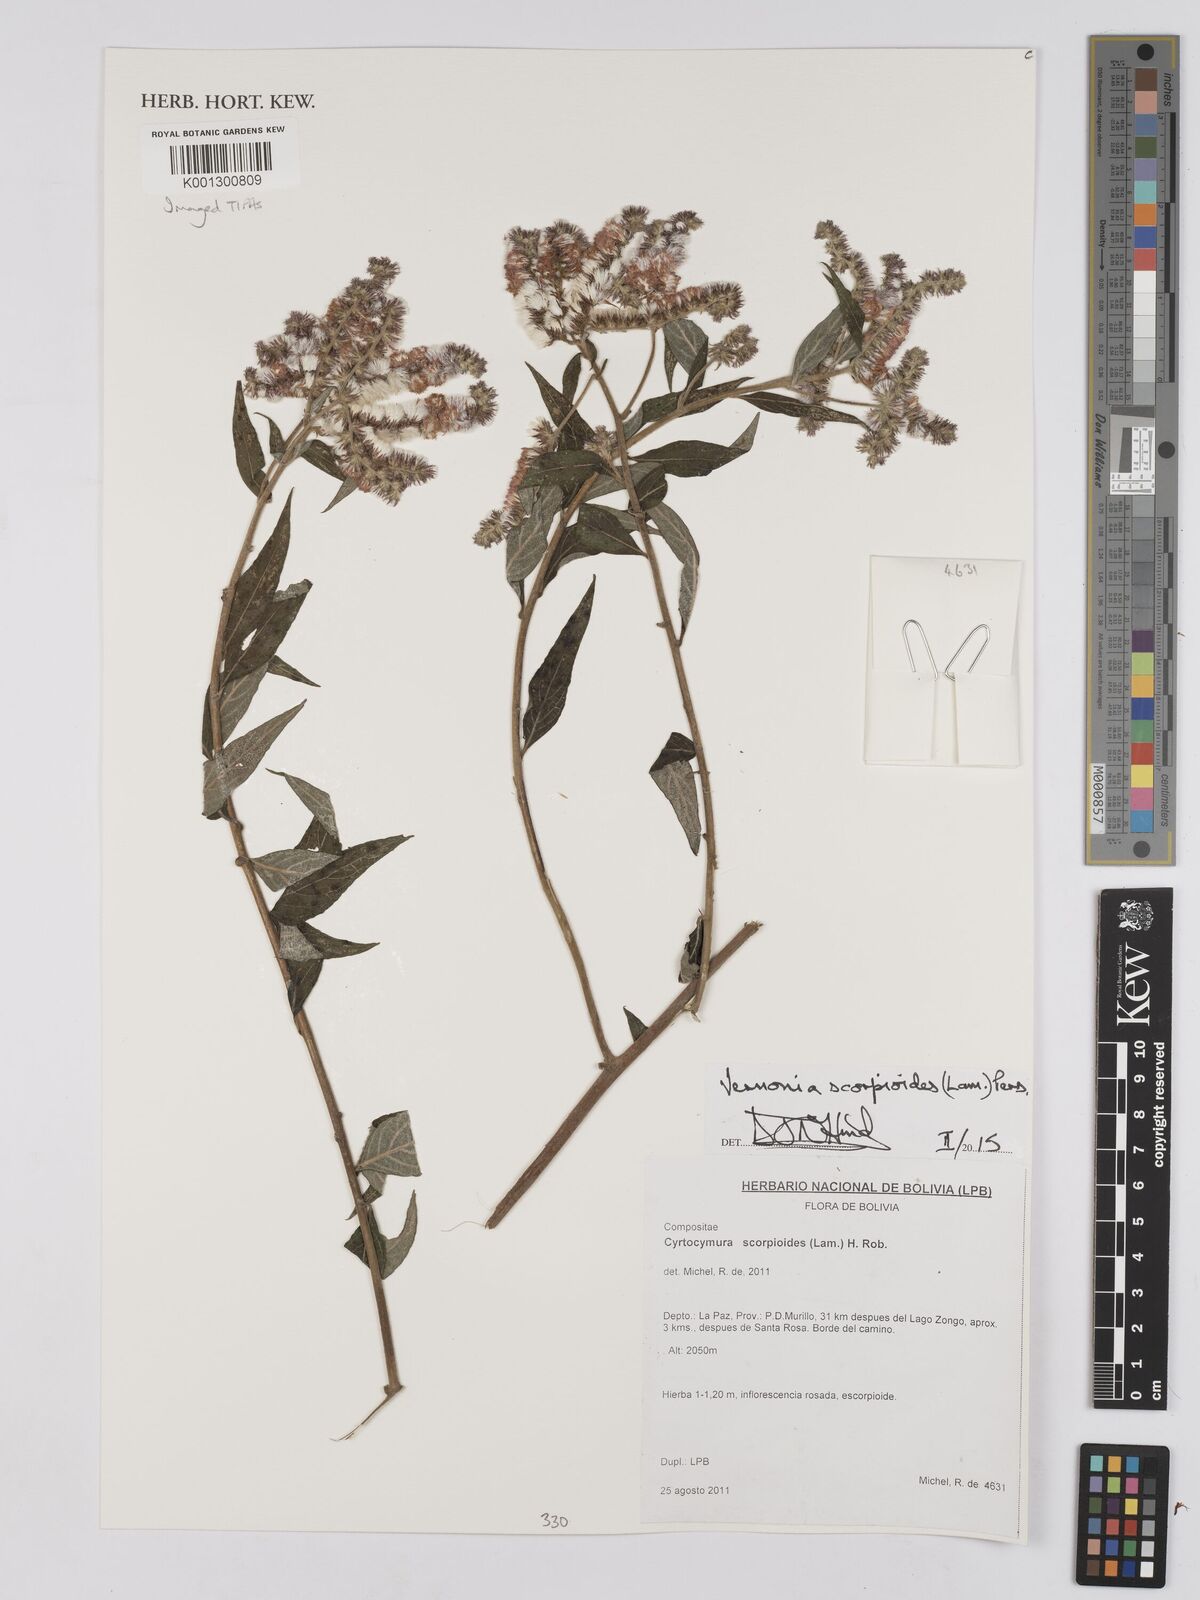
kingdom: Plantae
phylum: Tracheophyta
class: Magnoliopsida
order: Asterales
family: Asteraceae
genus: Cyrtocymura
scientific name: Cyrtocymura scorpioides
